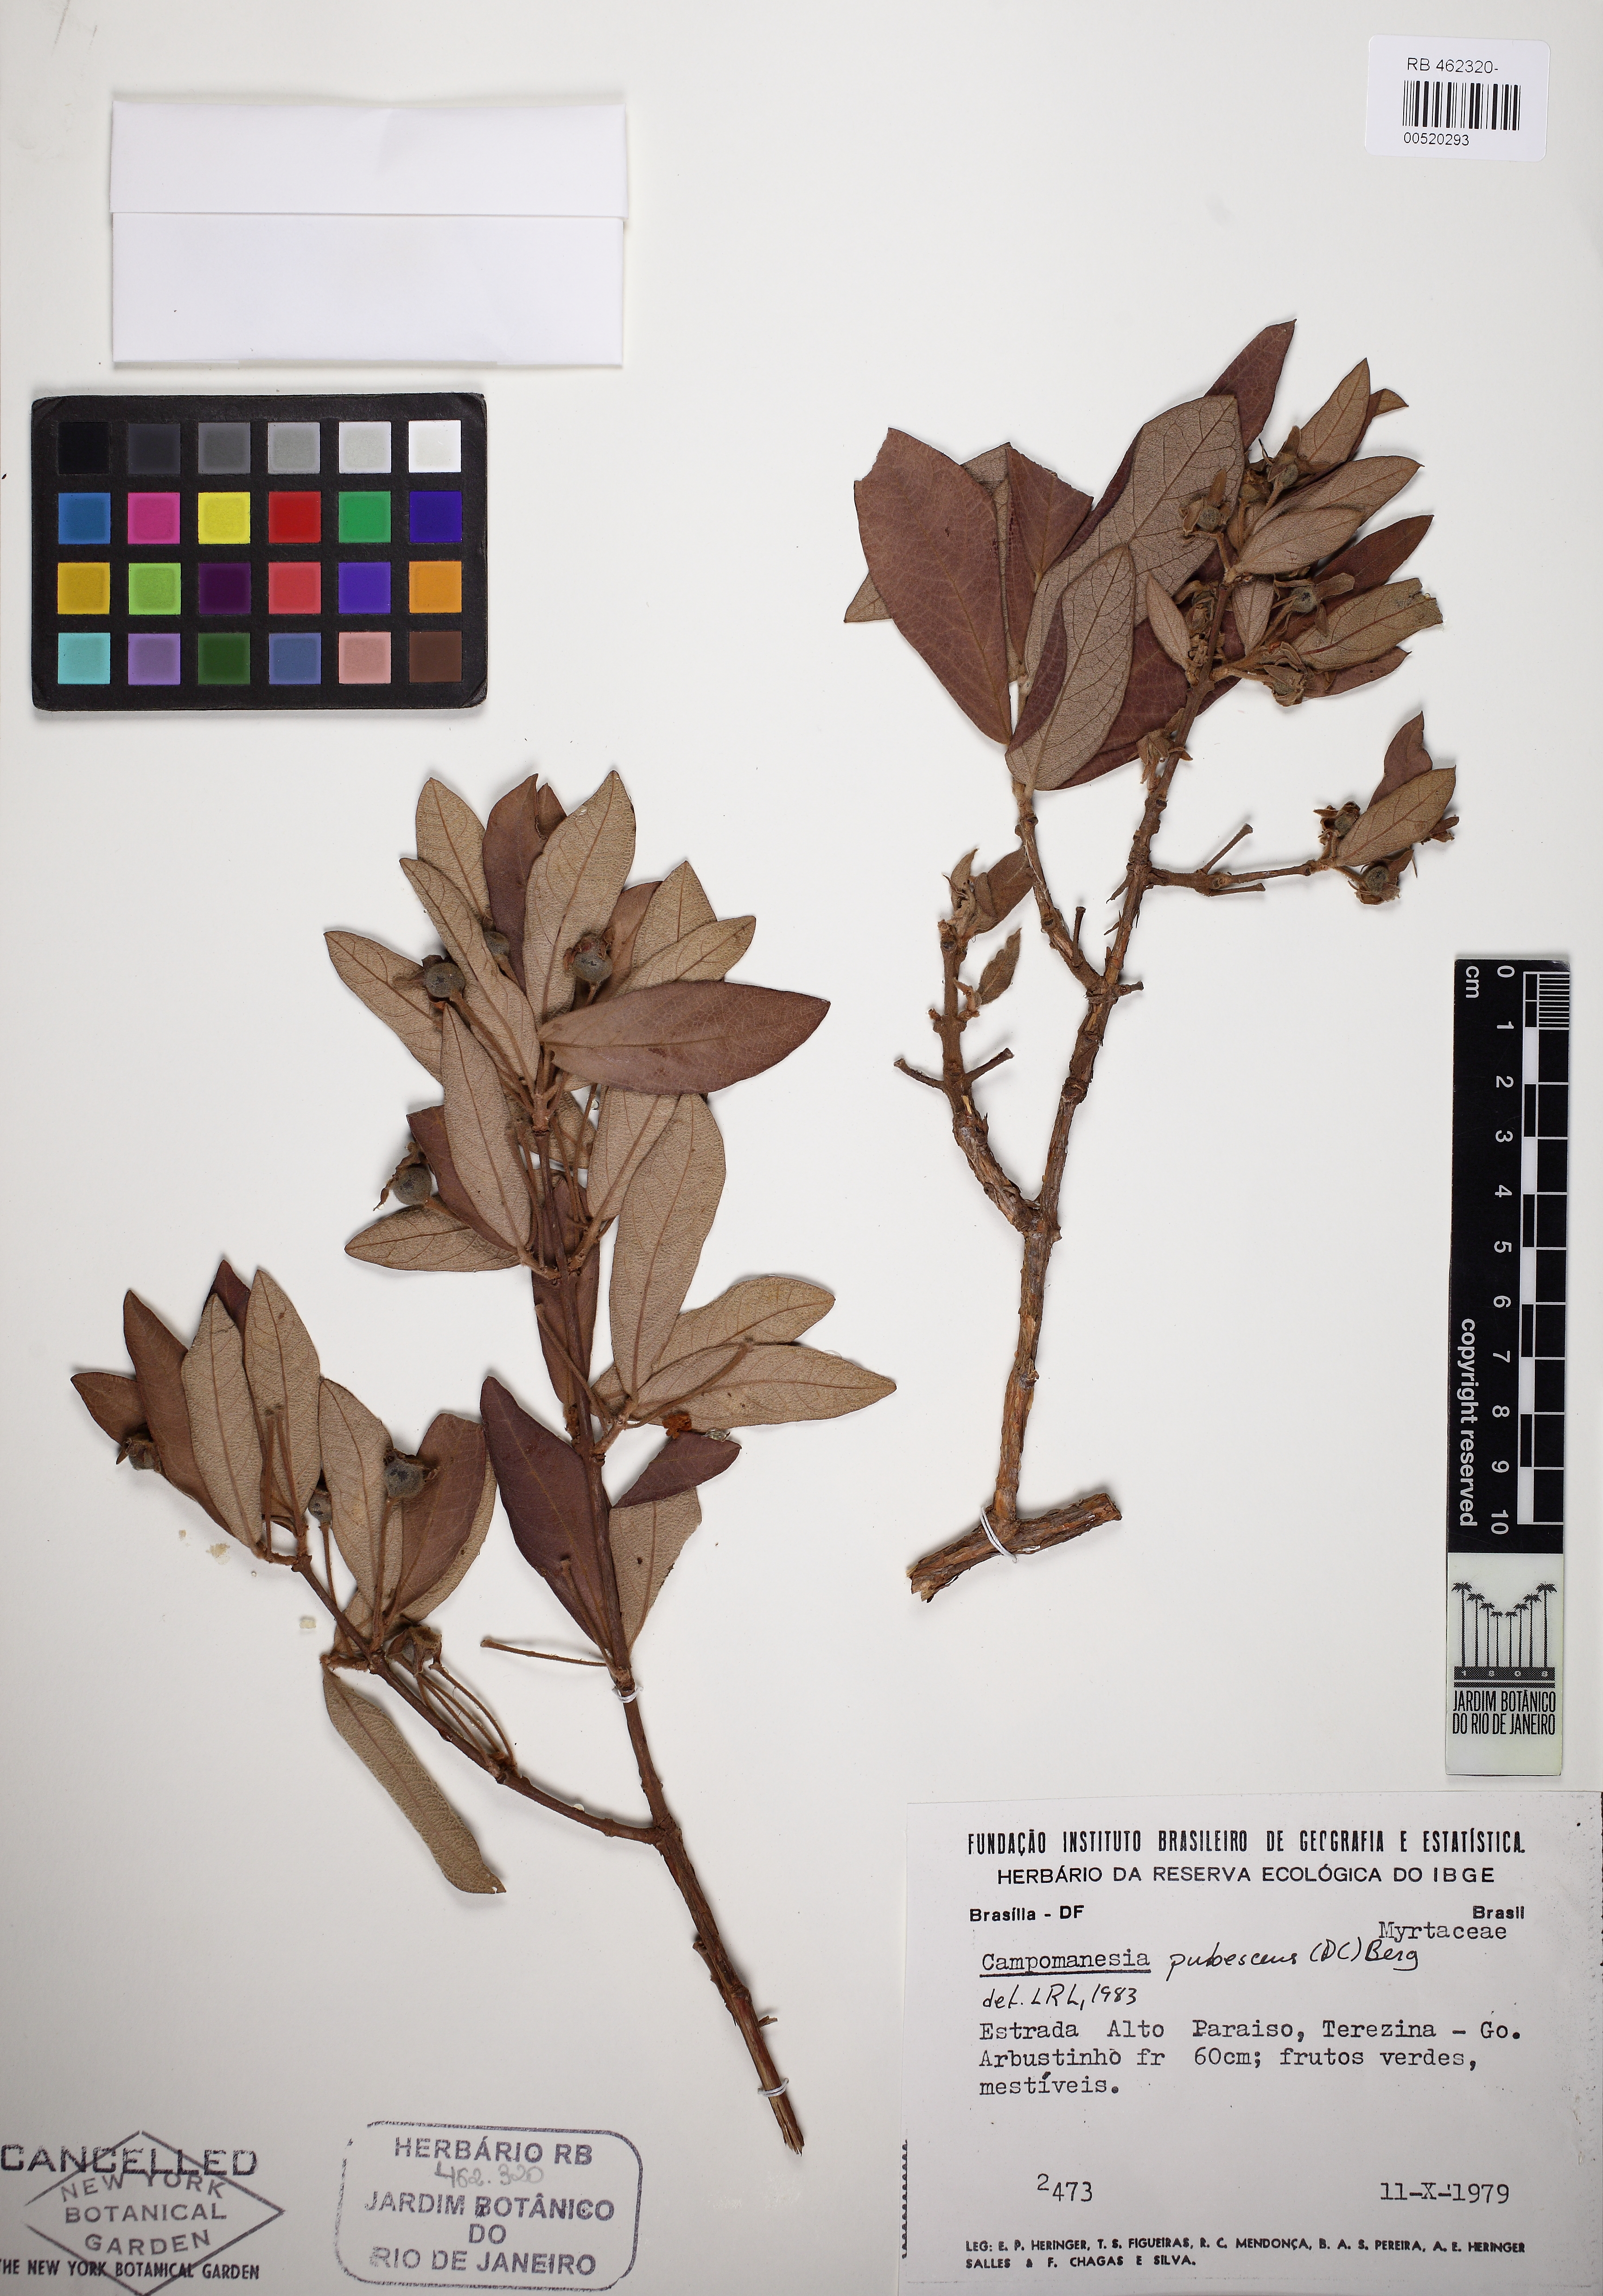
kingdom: Plantae
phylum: Tracheophyta
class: Magnoliopsida
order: Myrtales
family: Myrtaceae
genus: Campomanesia
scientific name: Campomanesia pubescens
